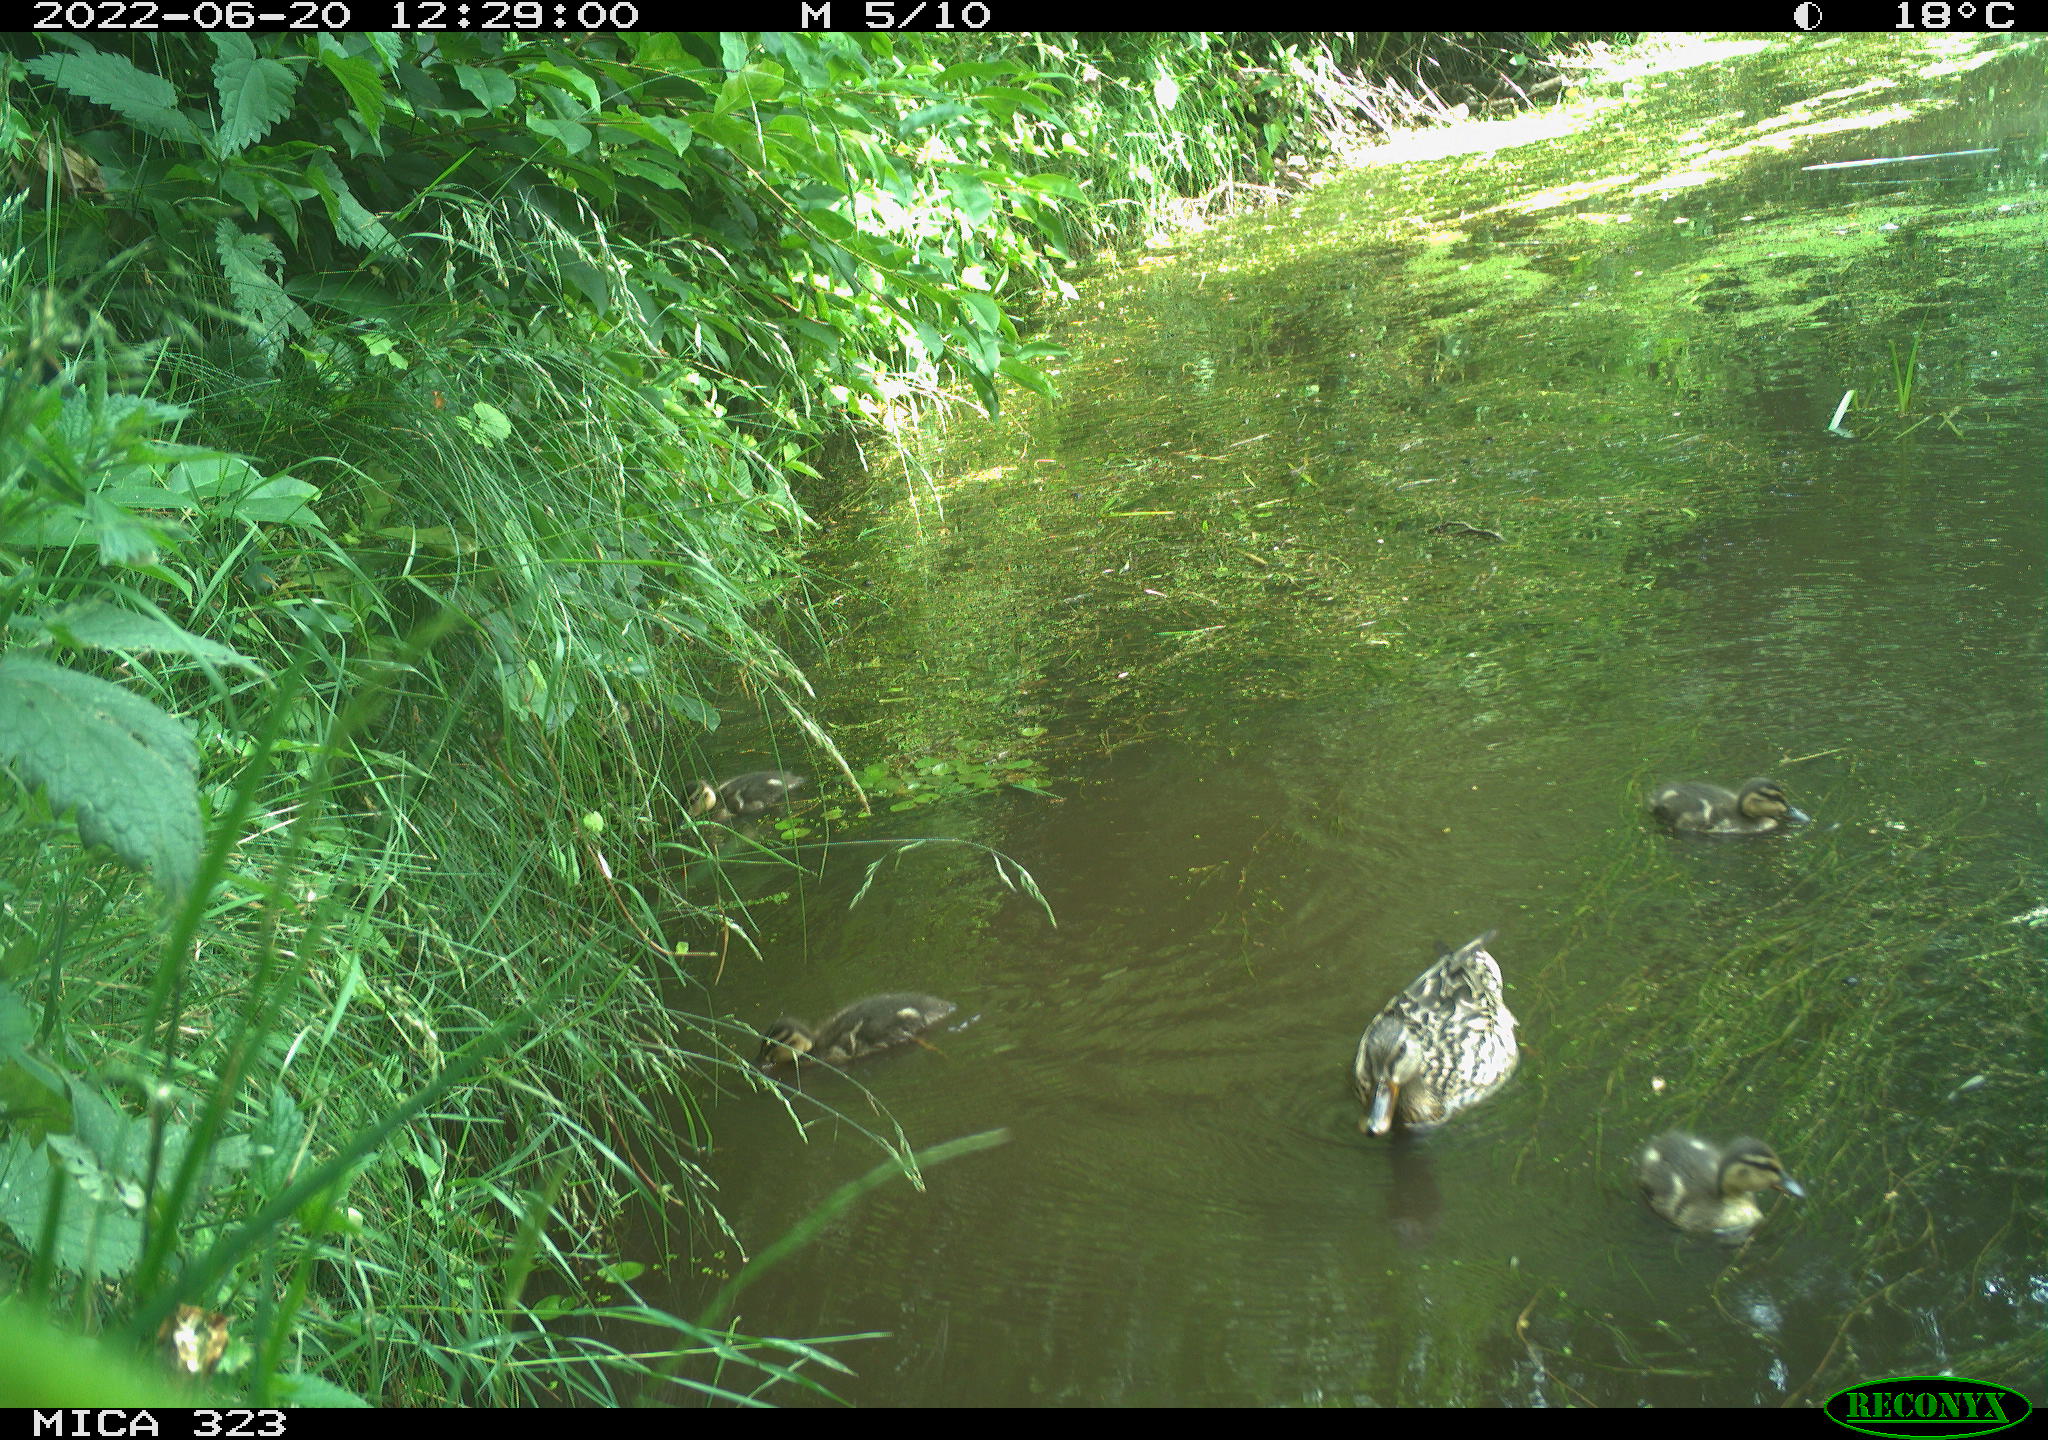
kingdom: Animalia
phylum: Chordata
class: Aves
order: Anseriformes
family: Anatidae
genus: Anas
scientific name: Anas platyrhynchos
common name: Mallard
